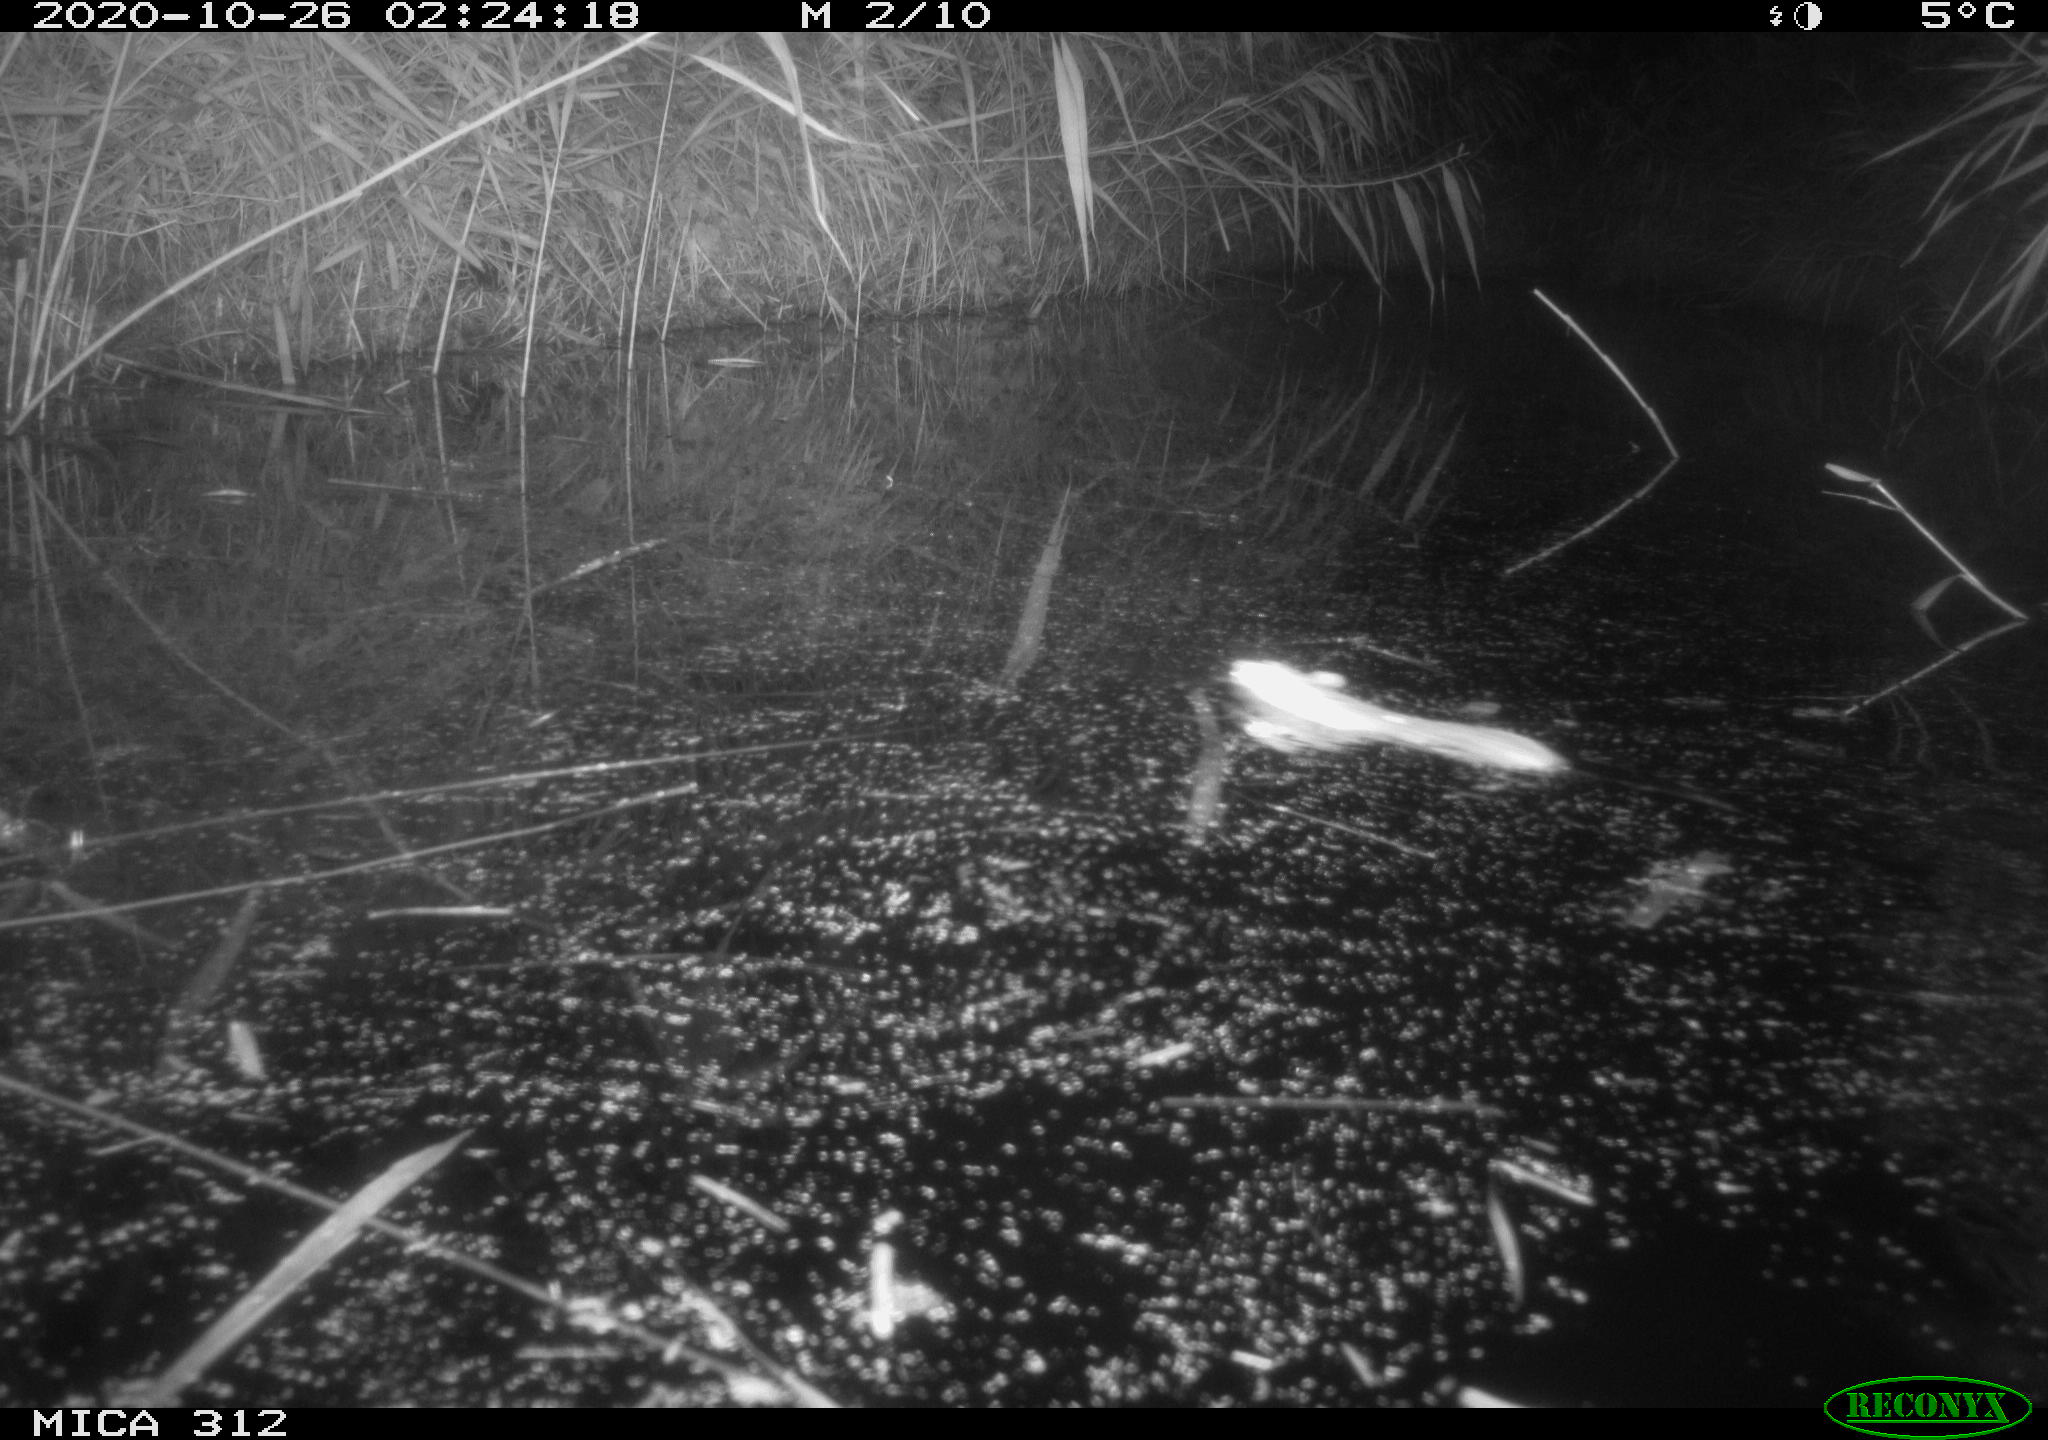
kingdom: Animalia
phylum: Chordata
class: Mammalia
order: Rodentia
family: Muridae
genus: Rattus
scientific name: Rattus norvegicus
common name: Brown rat
